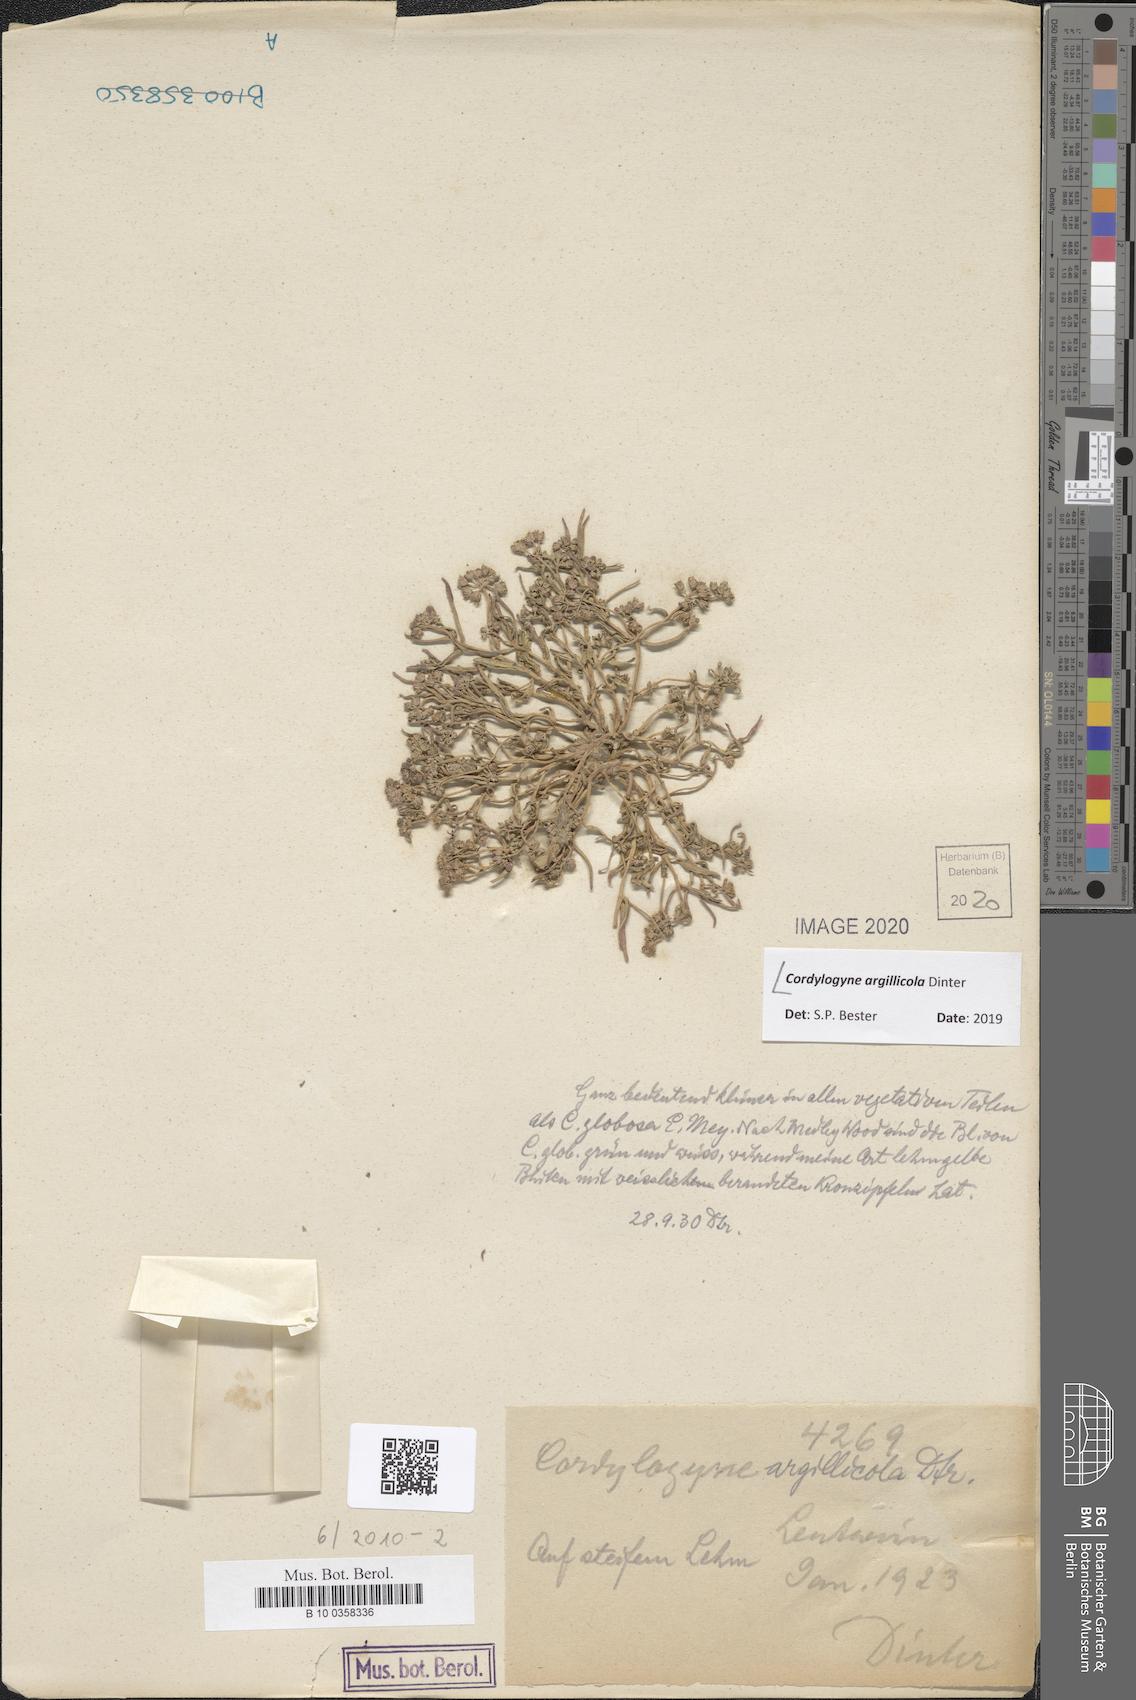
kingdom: Plantae
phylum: Tracheophyta
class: Magnoliopsida
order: Gentianales
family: Apocynaceae
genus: Periglossum
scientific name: Periglossum angustifolium
